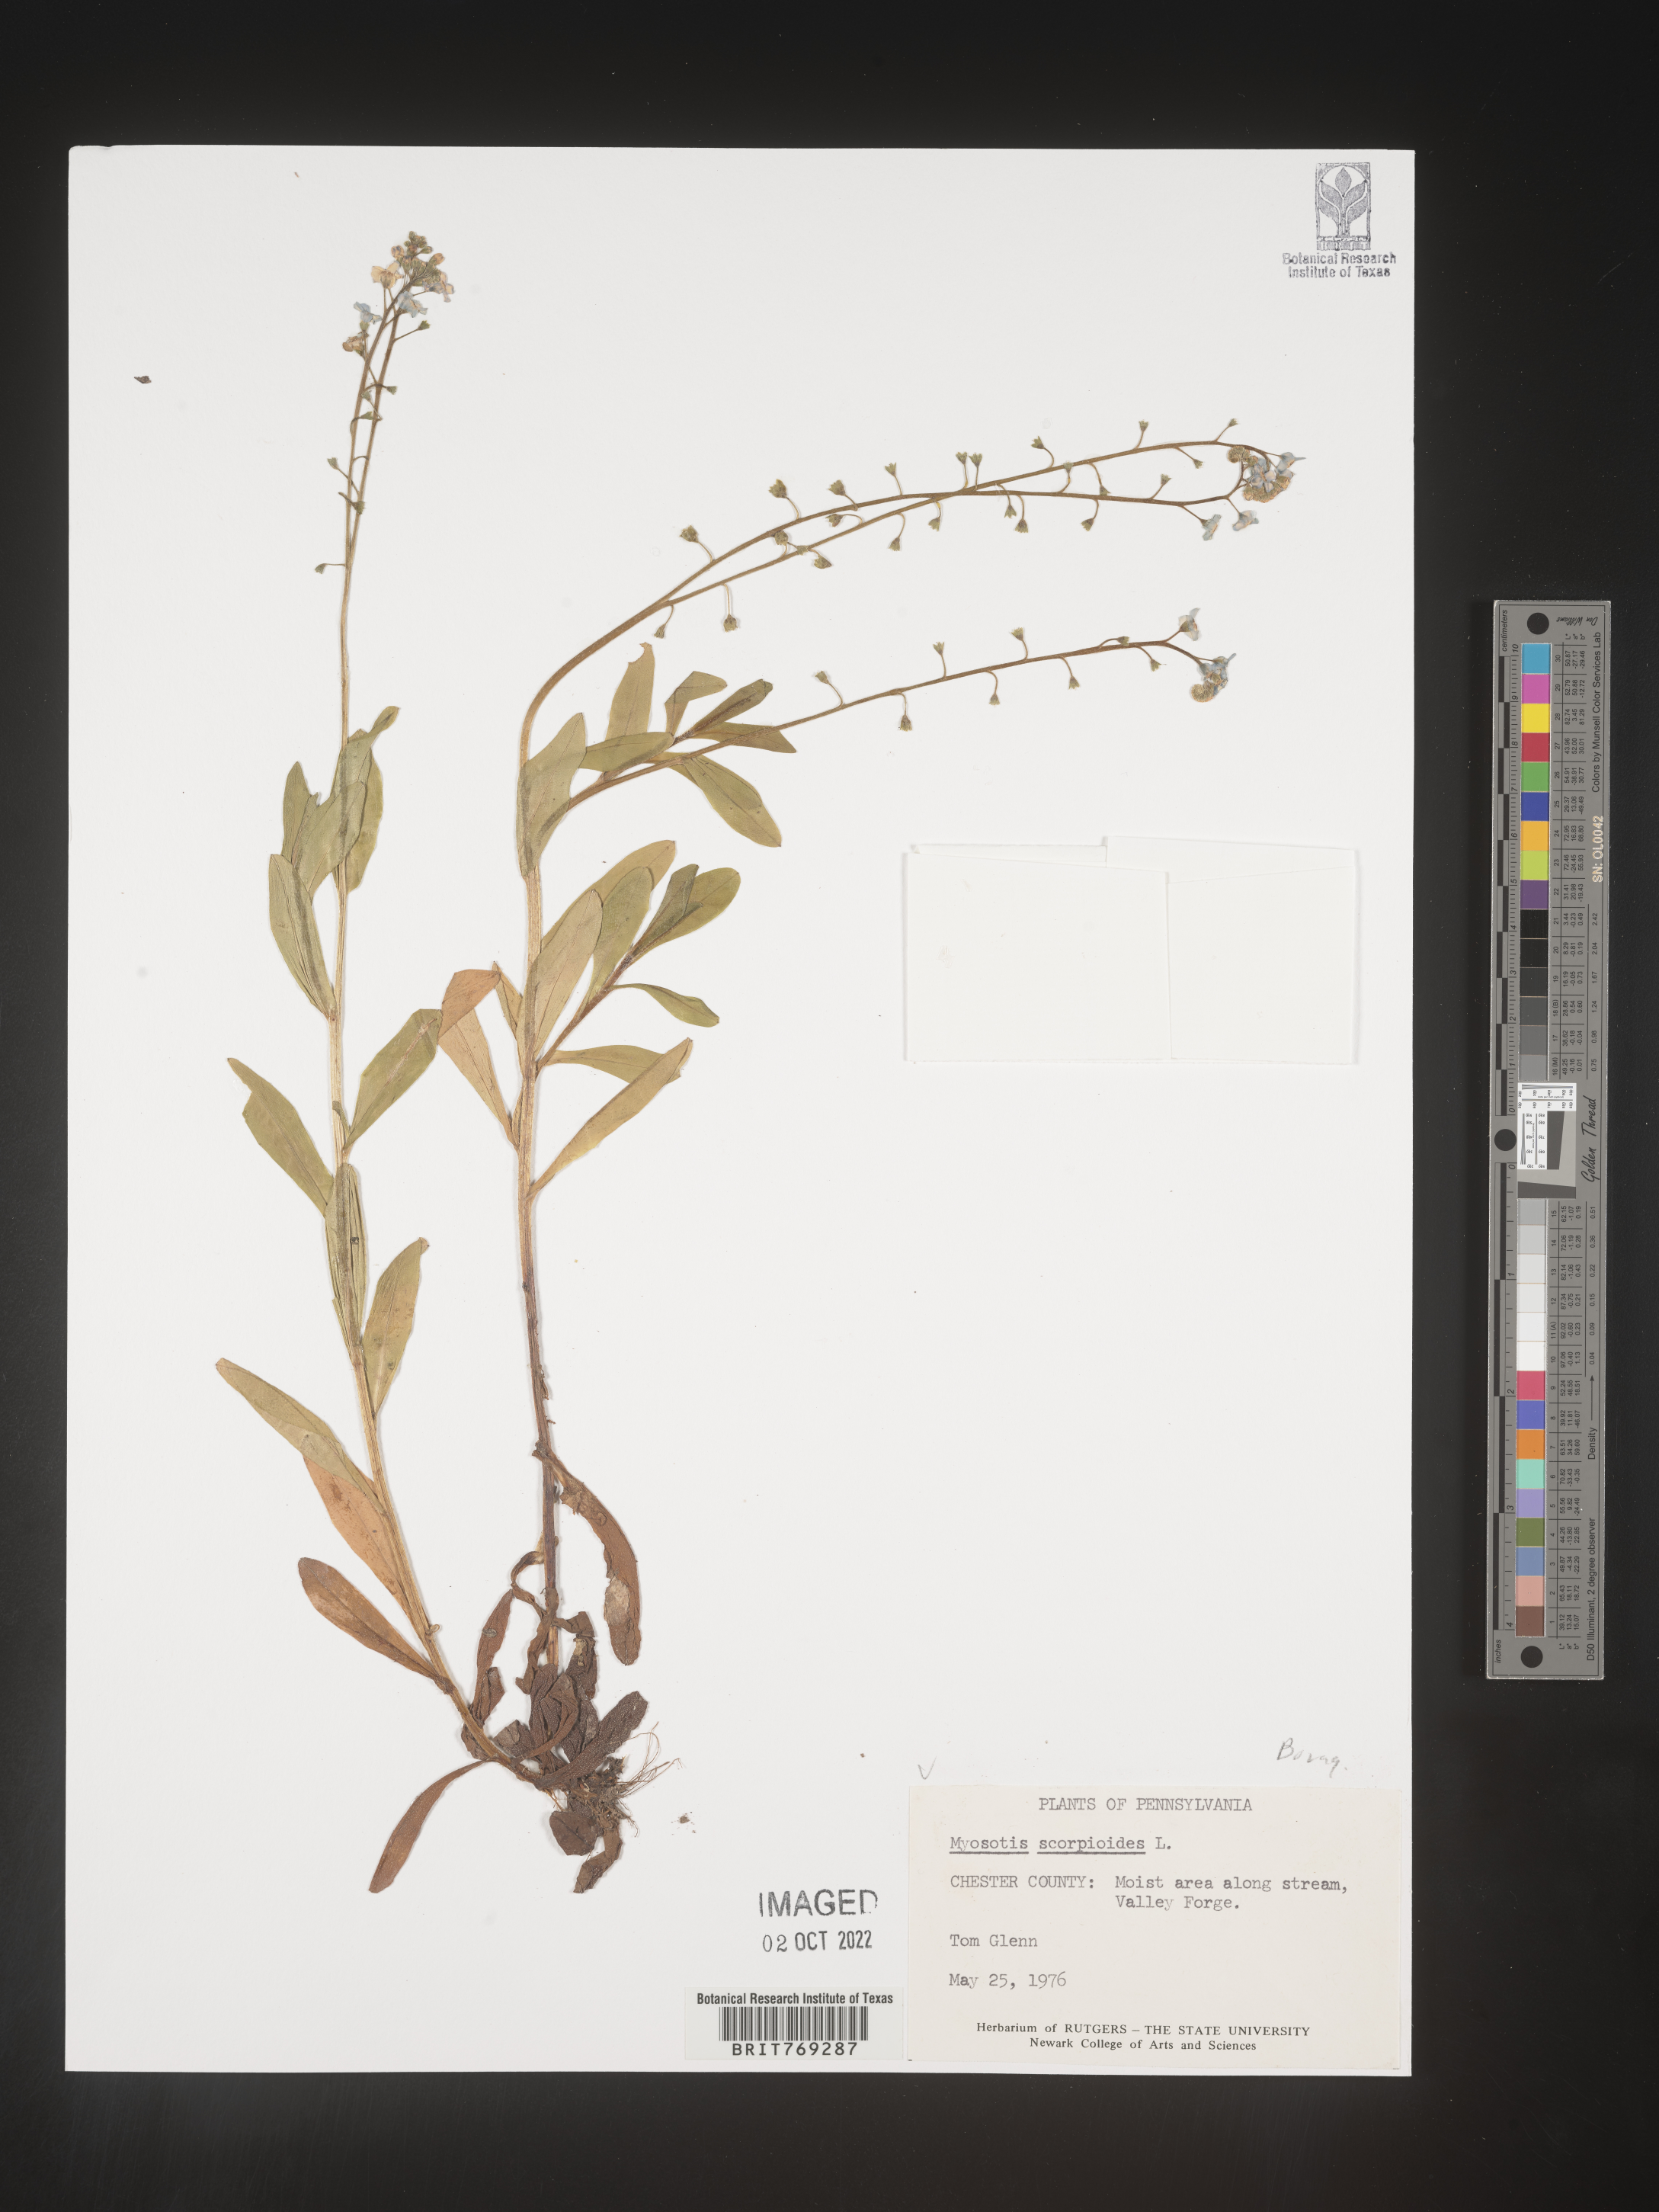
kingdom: Plantae
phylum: Tracheophyta
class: Magnoliopsida
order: Boraginales
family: Boraginaceae
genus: Myosotis
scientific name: Myosotis scorpioides
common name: Water forget-me-not
